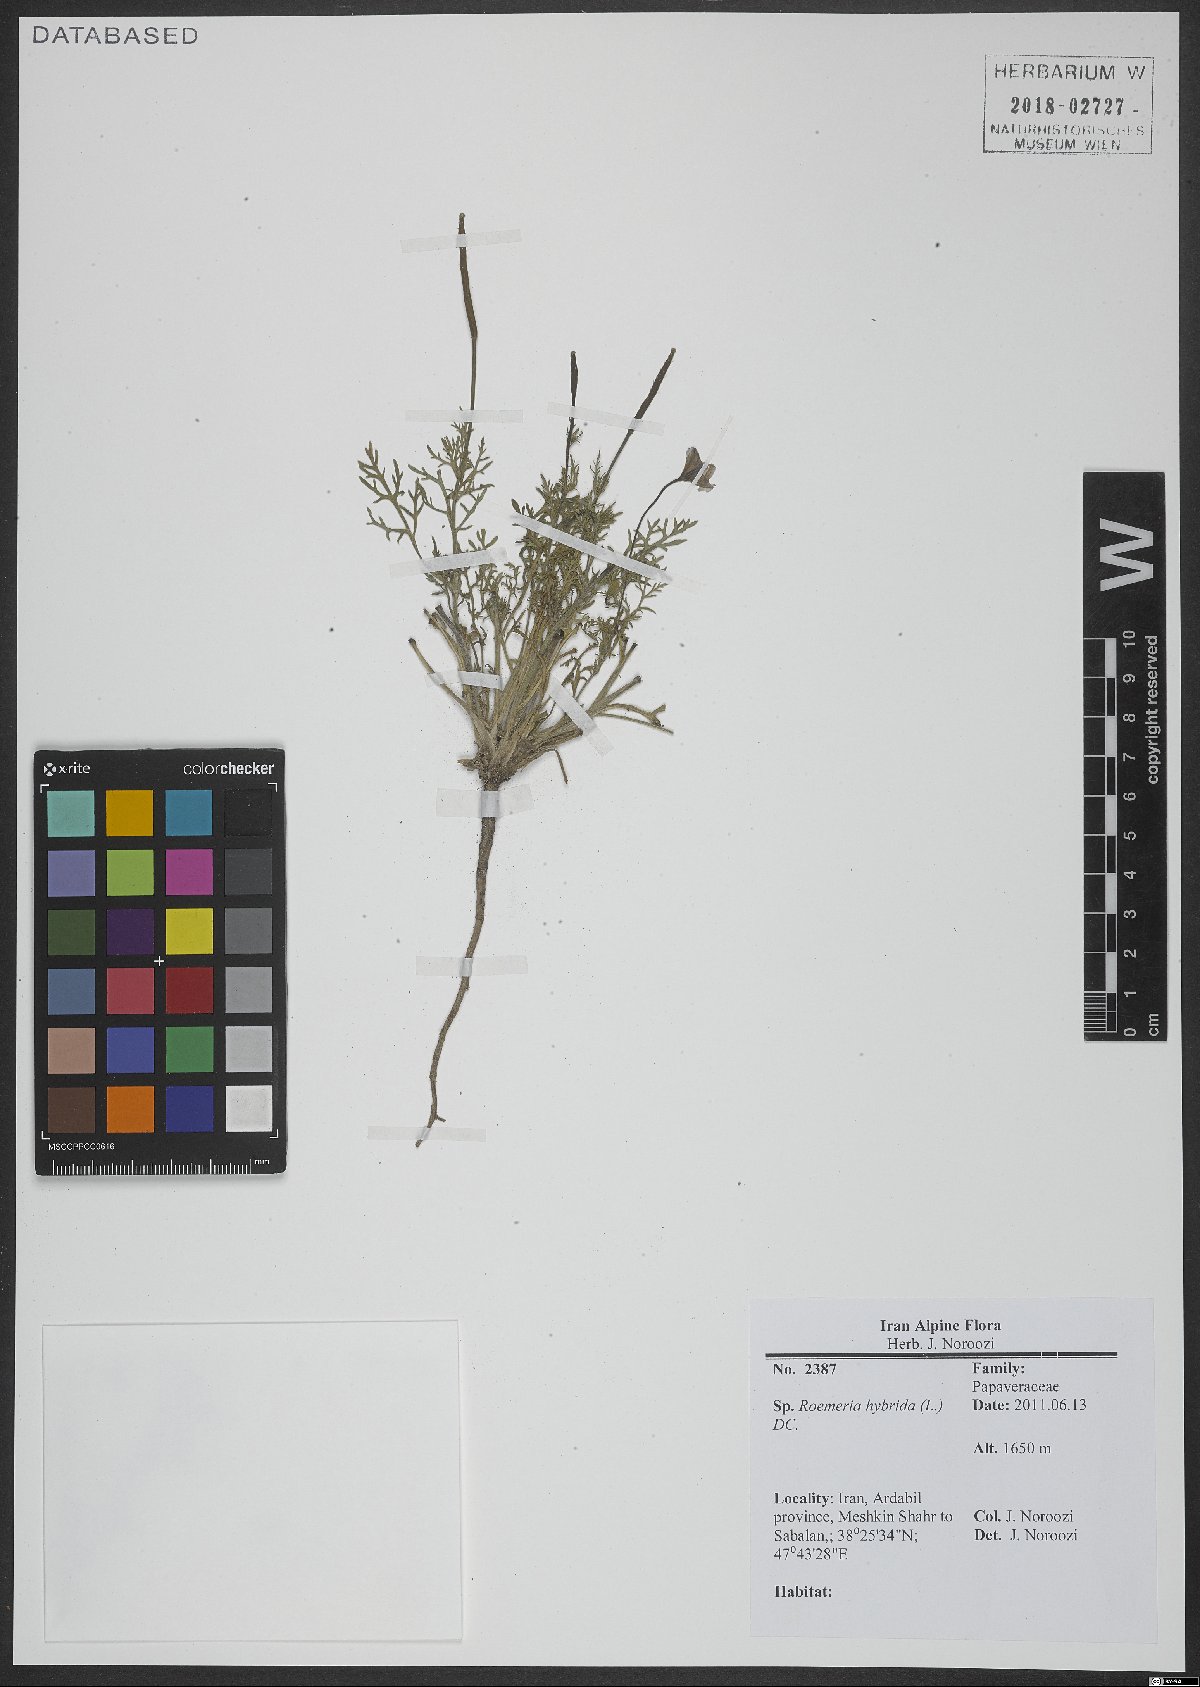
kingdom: Plantae
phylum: Tracheophyta
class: Magnoliopsida
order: Ranunculales
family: Papaveraceae
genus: Roemeria
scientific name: Roemeria hybrida
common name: Violet horned-poppy
